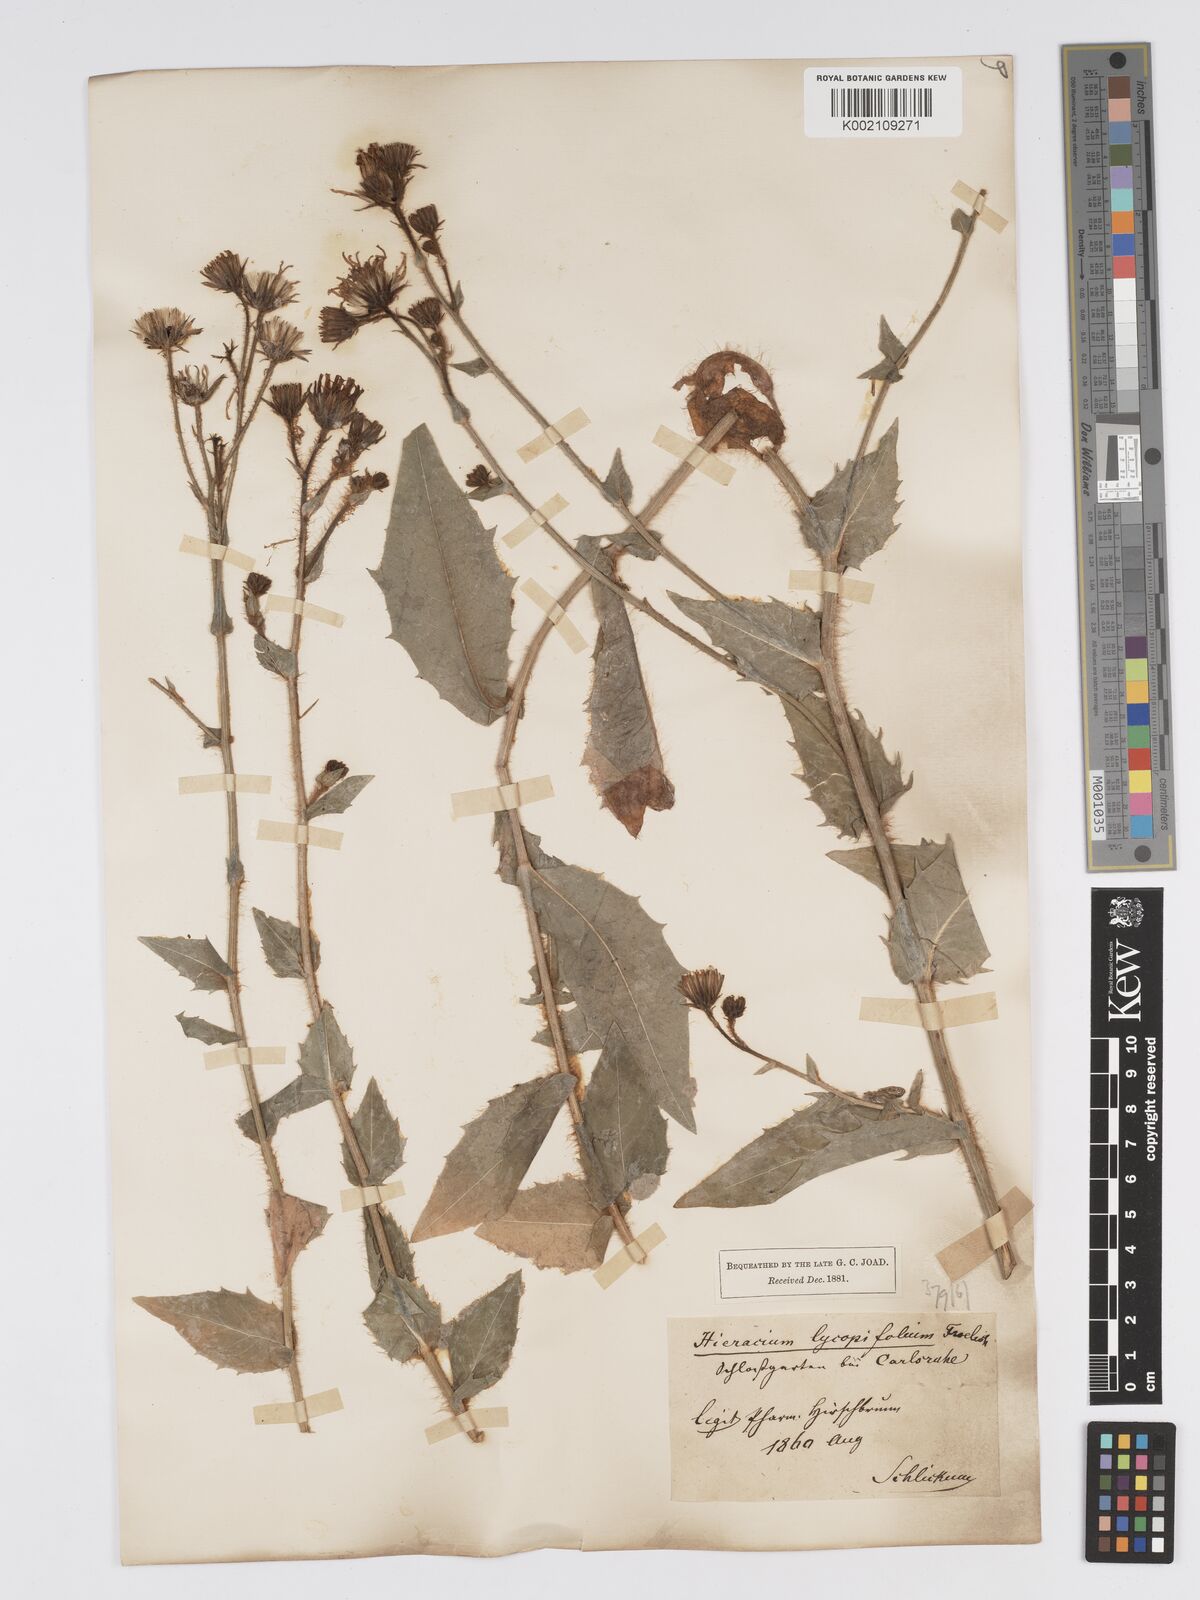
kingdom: Plantae
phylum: Tracheophyta
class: Magnoliopsida
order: Asterales
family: Asteraceae
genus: Hieracium
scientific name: Hieracium lycopifolium
